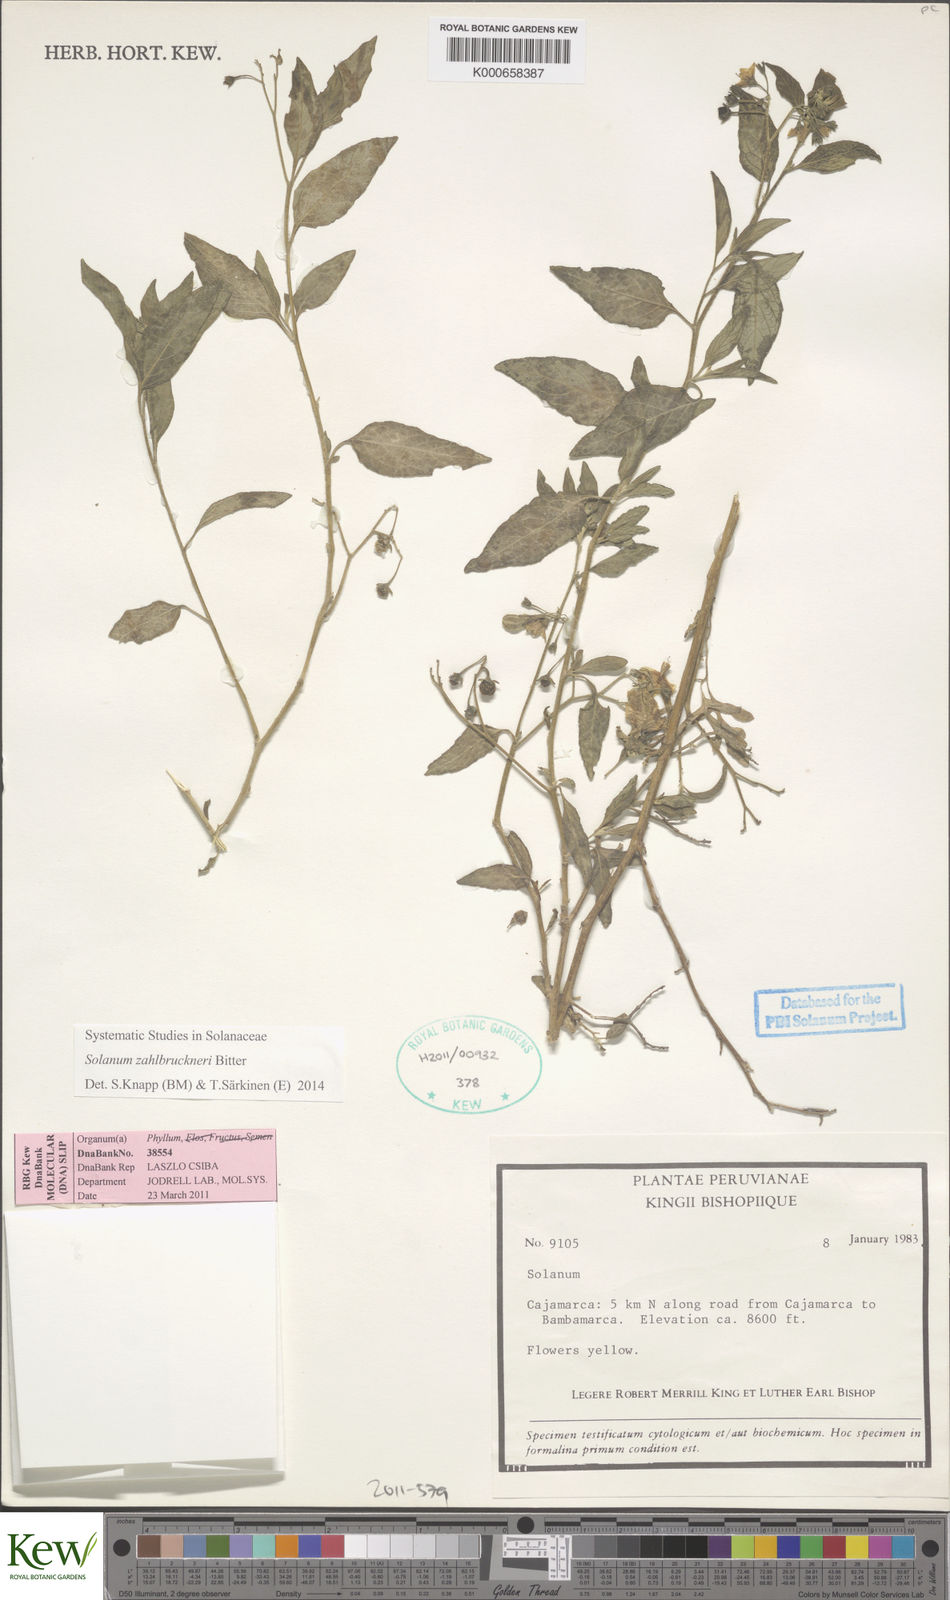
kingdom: Plantae
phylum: Tracheophyta
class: Magnoliopsida
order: Solanales
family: Solanaceae
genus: Solanum
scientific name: Solanum aloysiifolium
